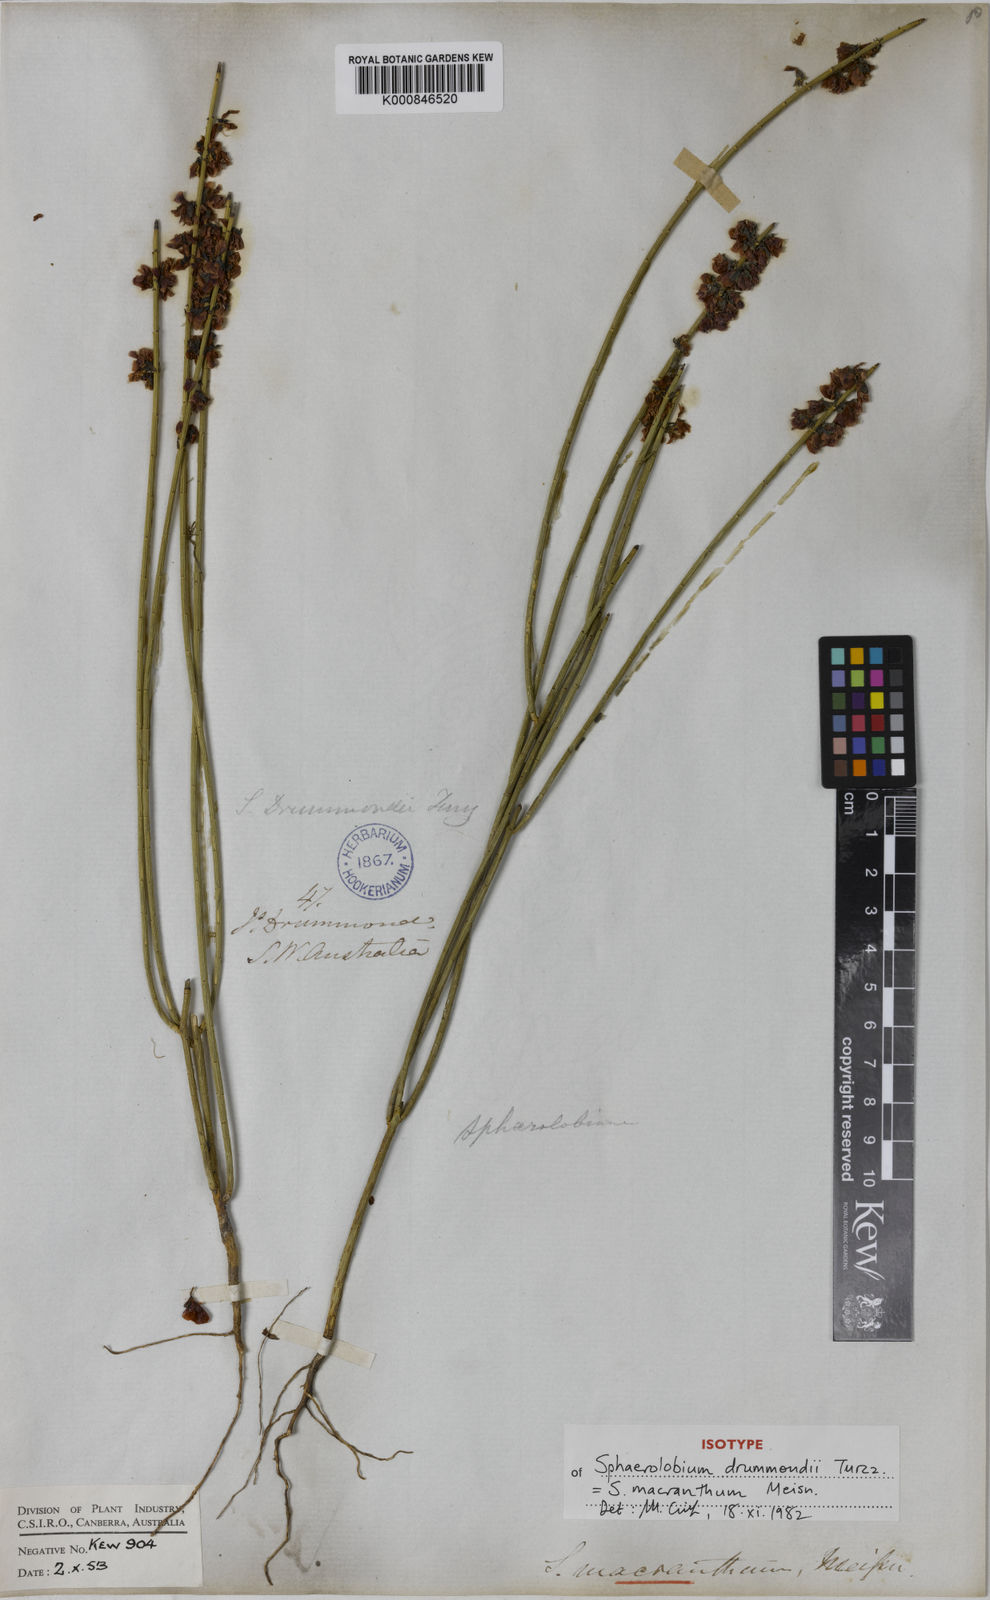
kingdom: Plantae
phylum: Tracheophyta
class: Magnoliopsida
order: Fabales
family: Fabaceae
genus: Sphaerolobium
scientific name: Sphaerolobium macranthum
